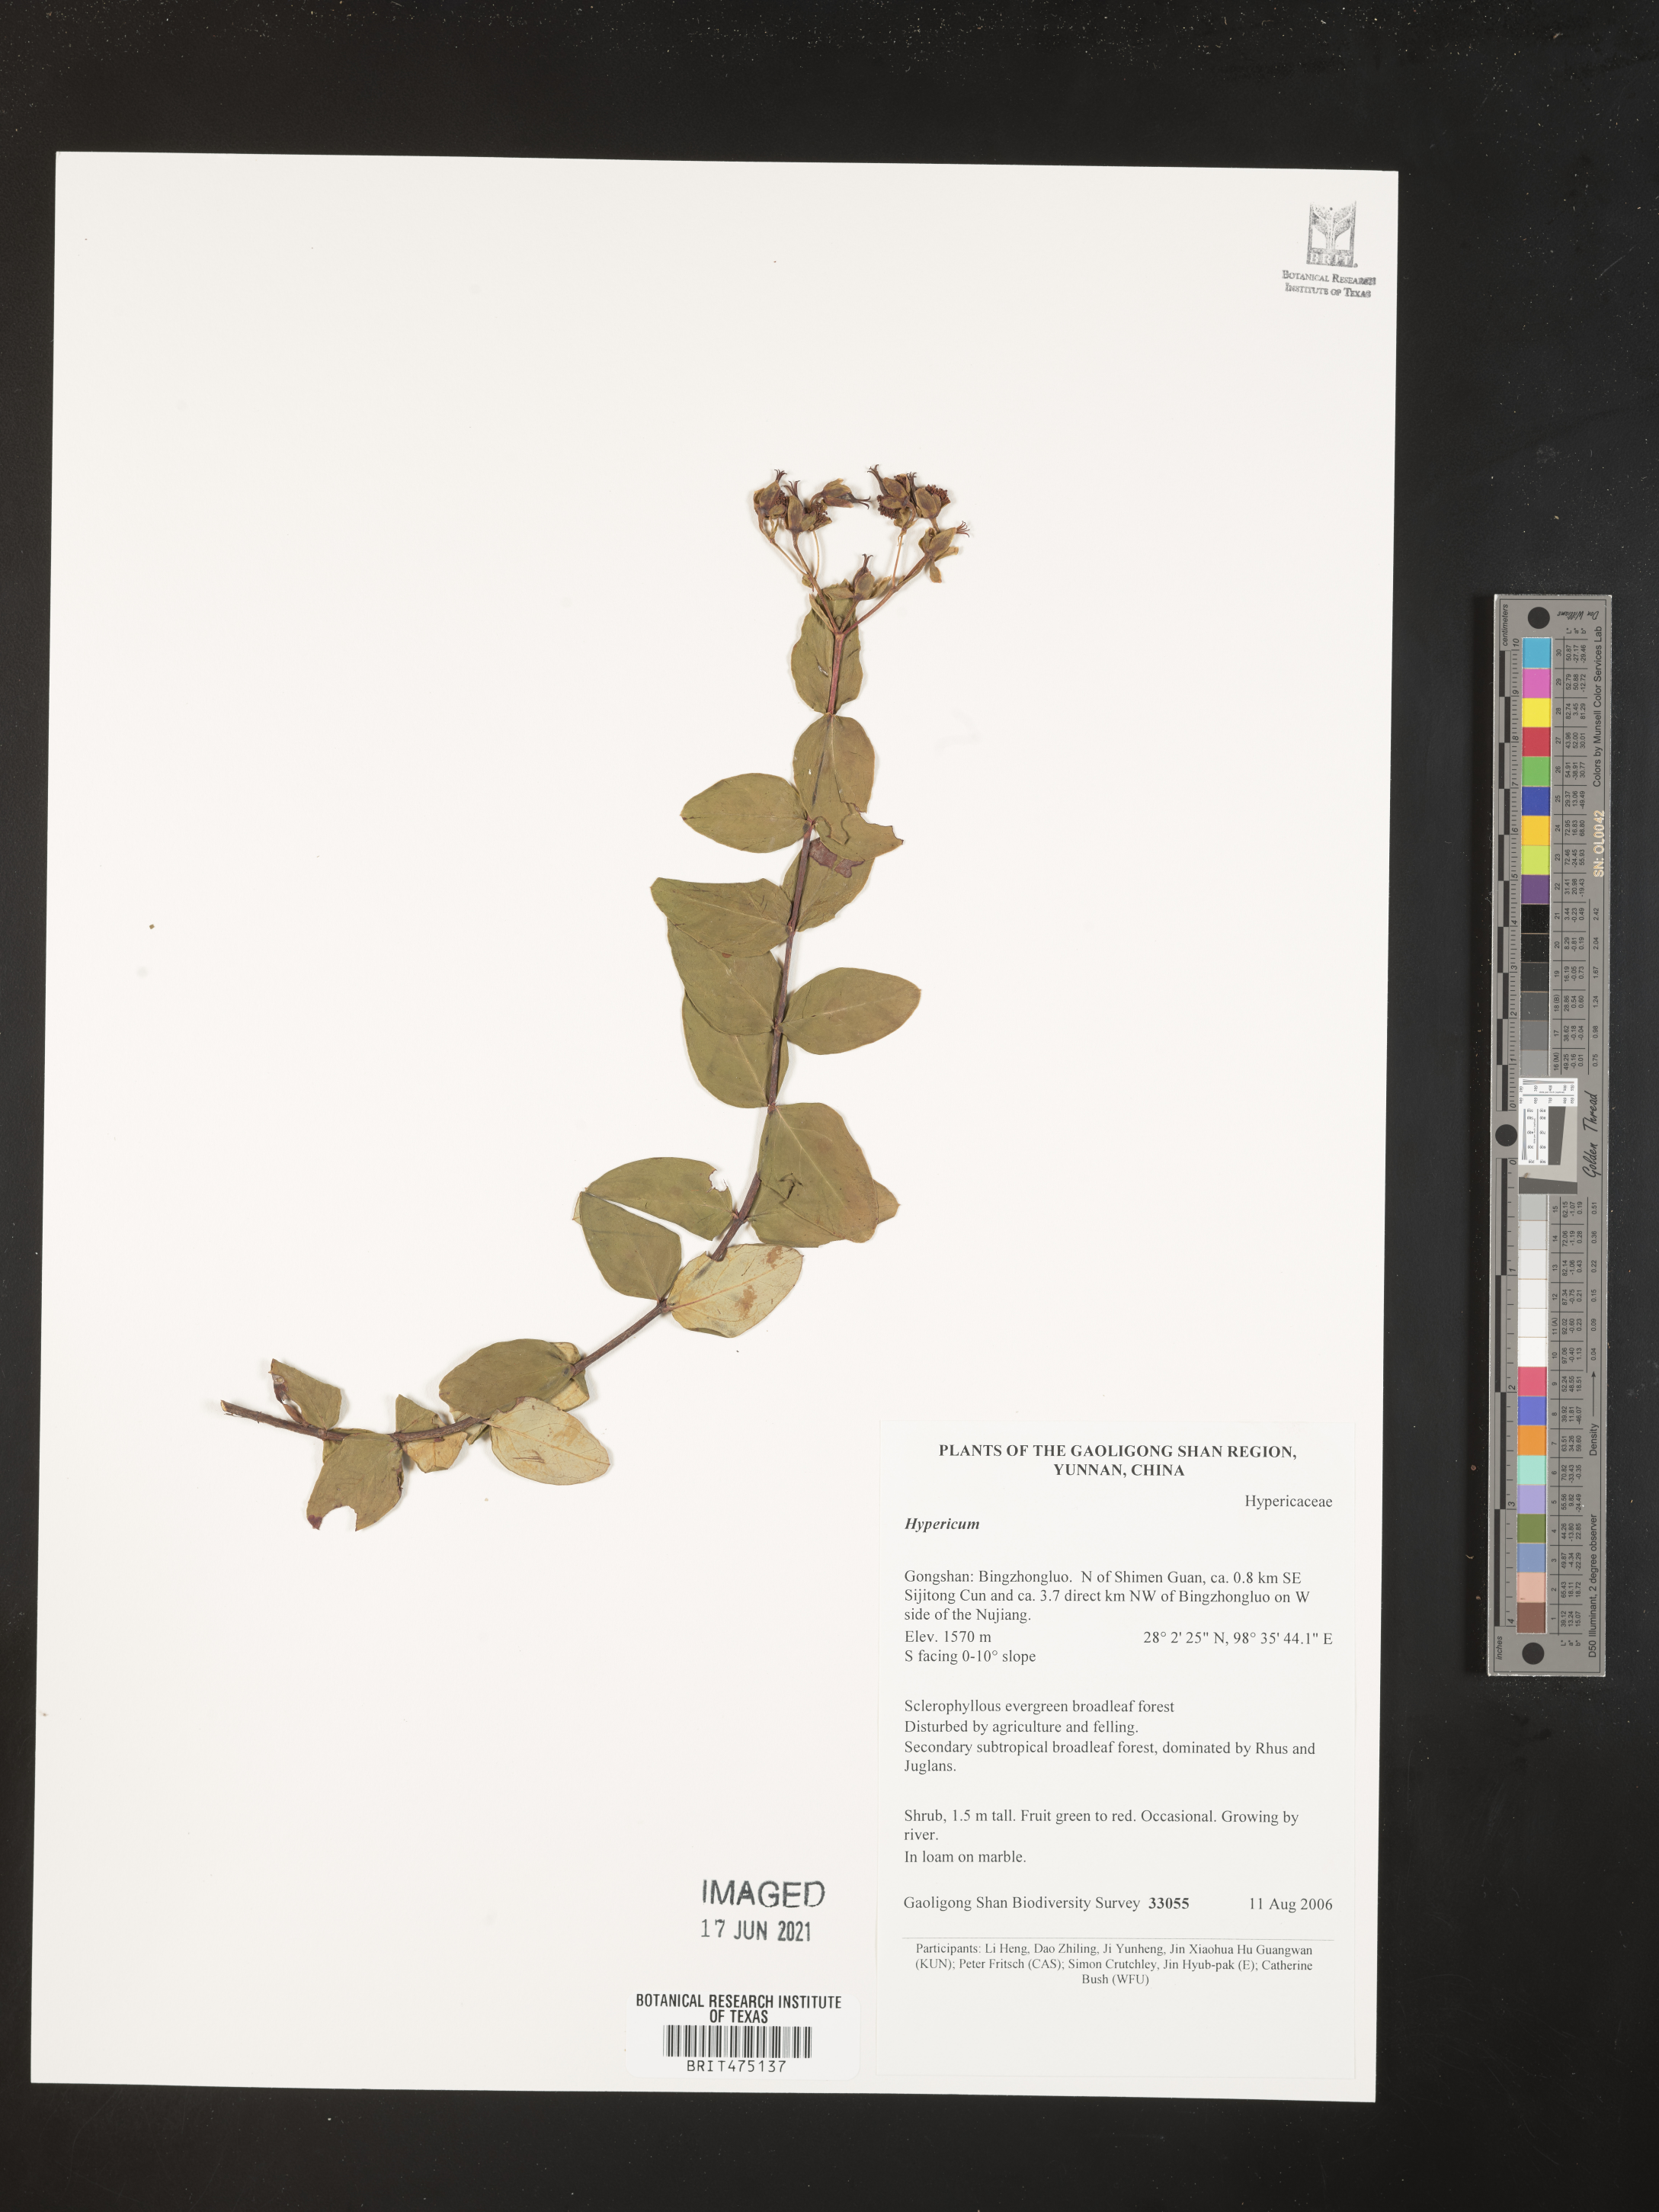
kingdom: Plantae
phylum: Tracheophyta
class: Magnoliopsida
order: Malpighiales
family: Hypericaceae
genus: Hypericum
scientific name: Hypericum
